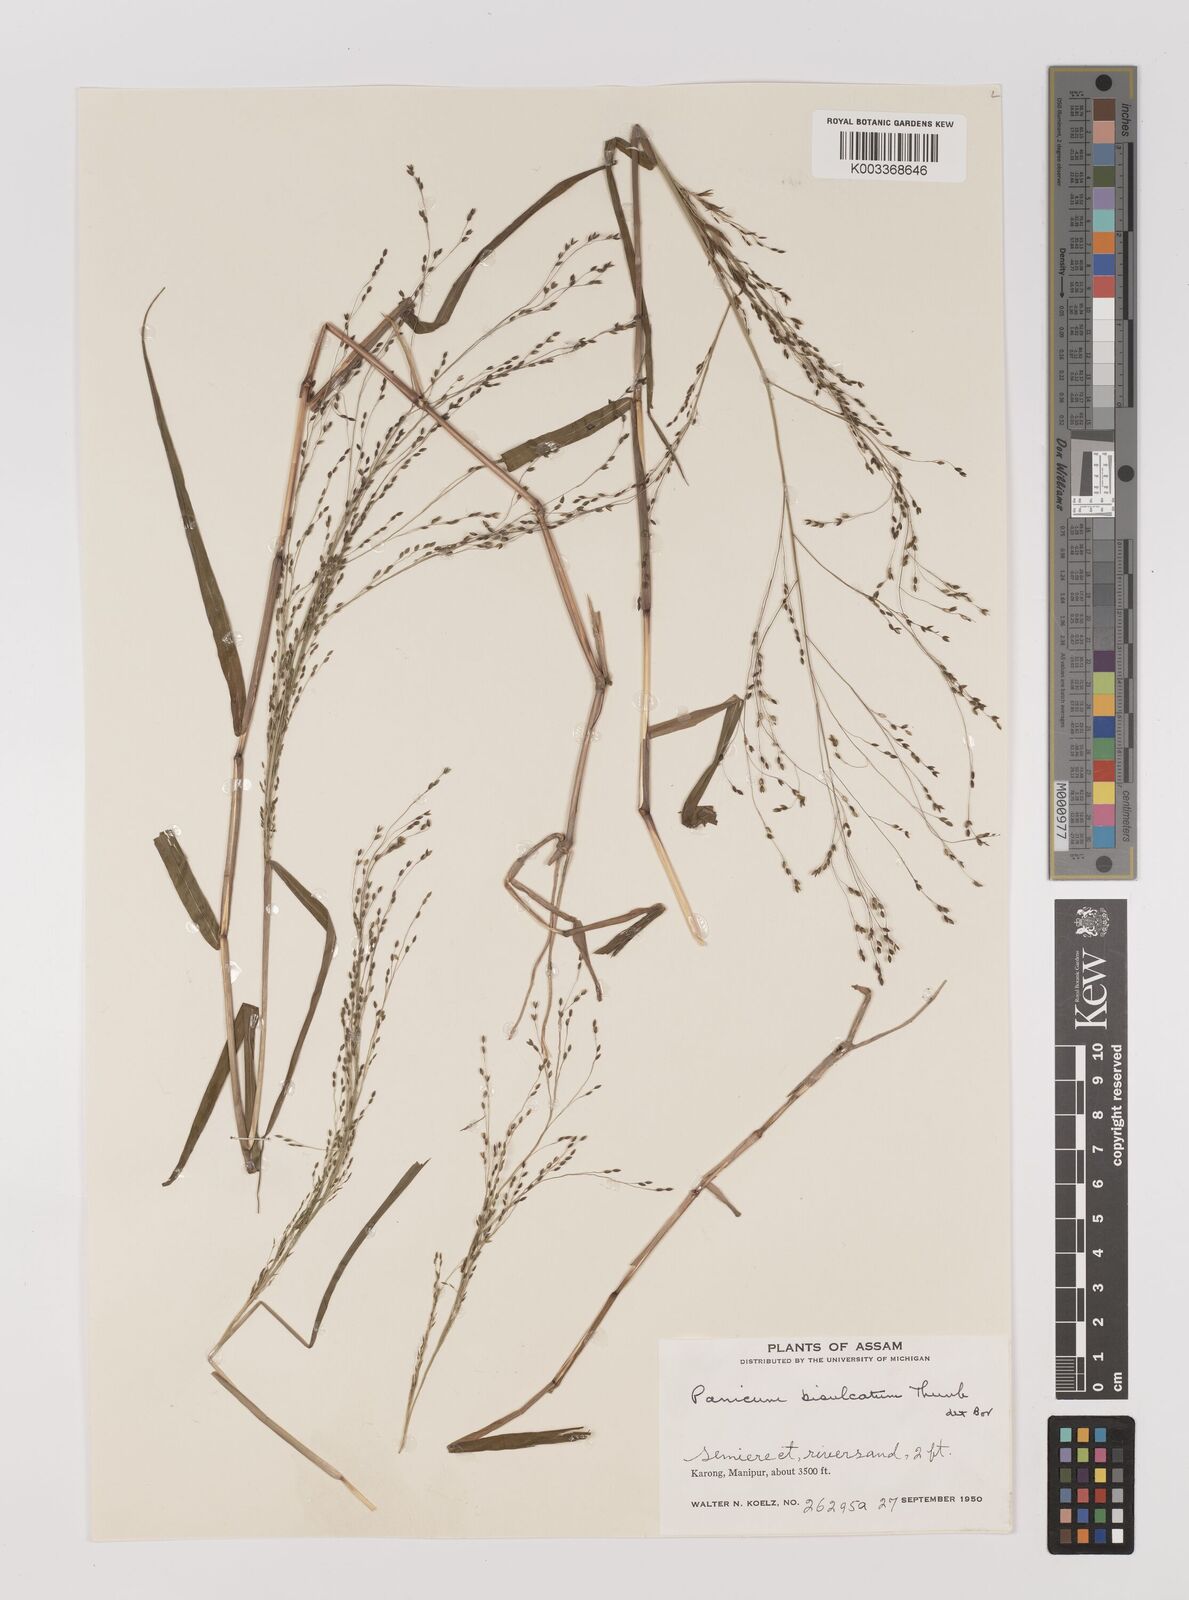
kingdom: Plantae
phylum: Tracheophyta
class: Liliopsida
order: Poales
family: Poaceae
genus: Panicum
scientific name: Panicum bisulcatum
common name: Japanese panicgrass
